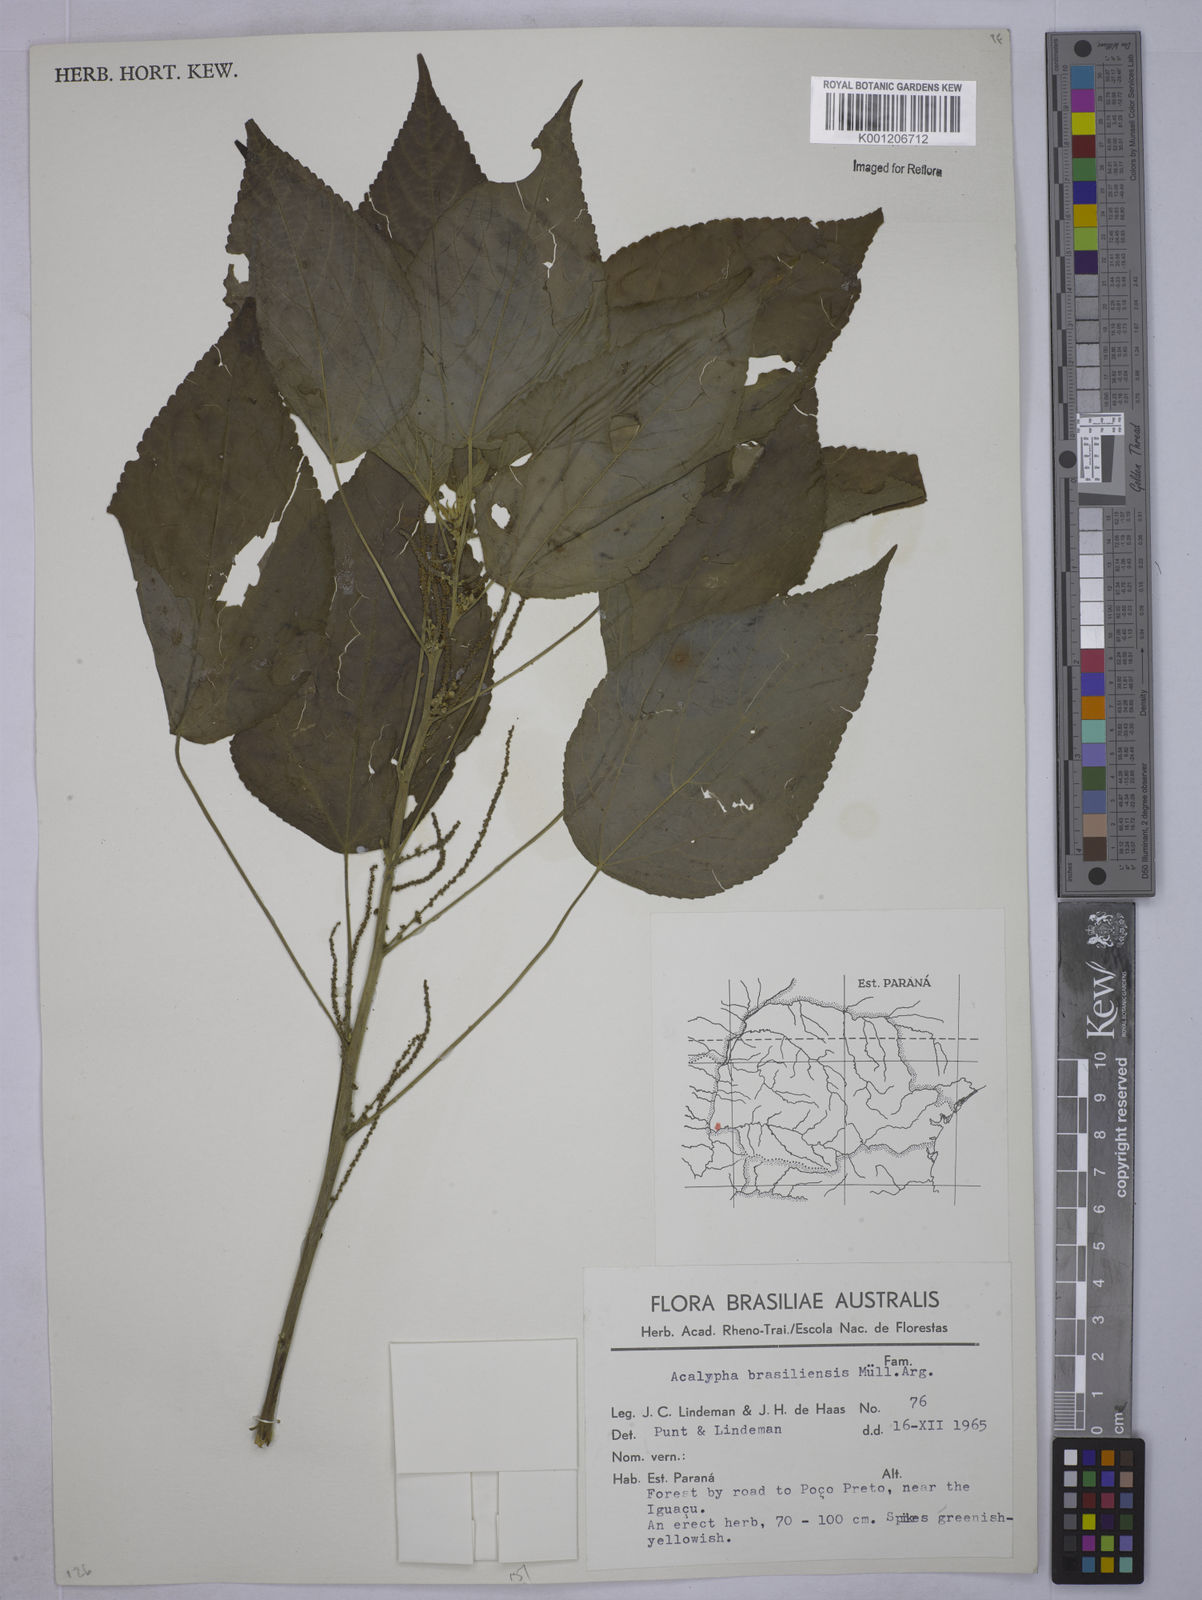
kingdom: Plantae
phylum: Tracheophyta
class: Magnoliopsida
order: Malpighiales
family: Euphorbiaceae
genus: Acalypha
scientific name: Acalypha
